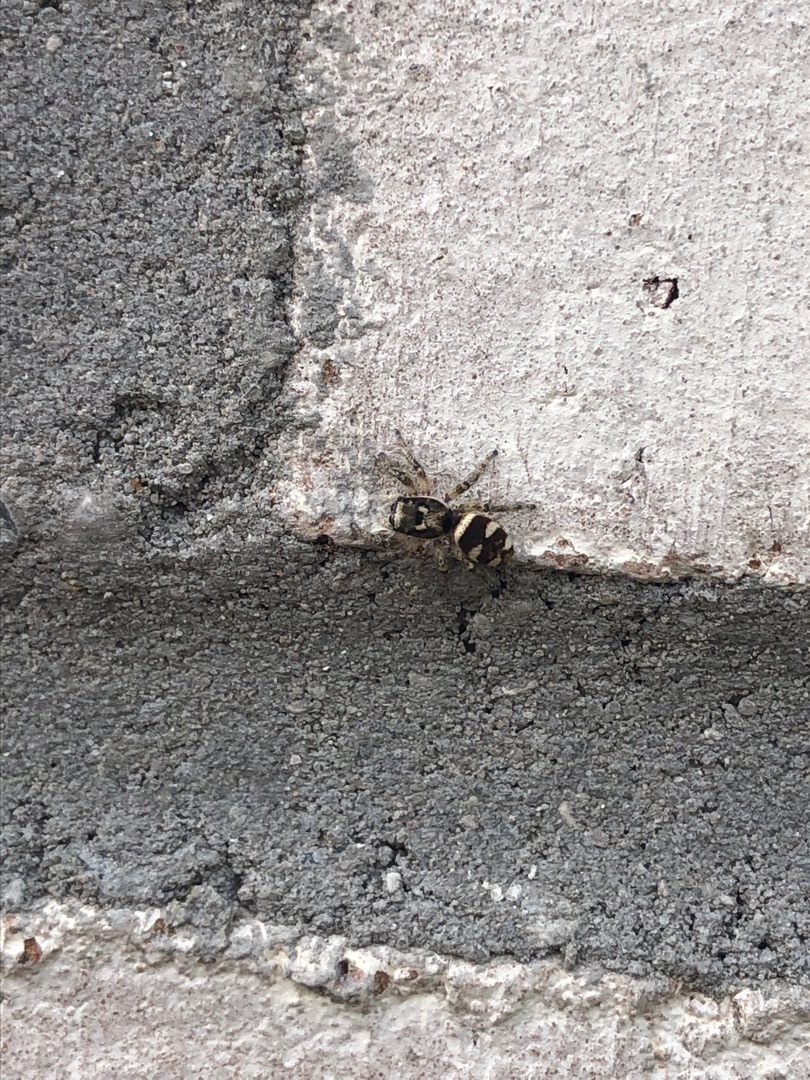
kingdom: Animalia
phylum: Arthropoda
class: Arachnida
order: Araneae
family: Salticidae
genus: Salticus
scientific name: Salticus scenicus
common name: Almindelig zebraedderkop
